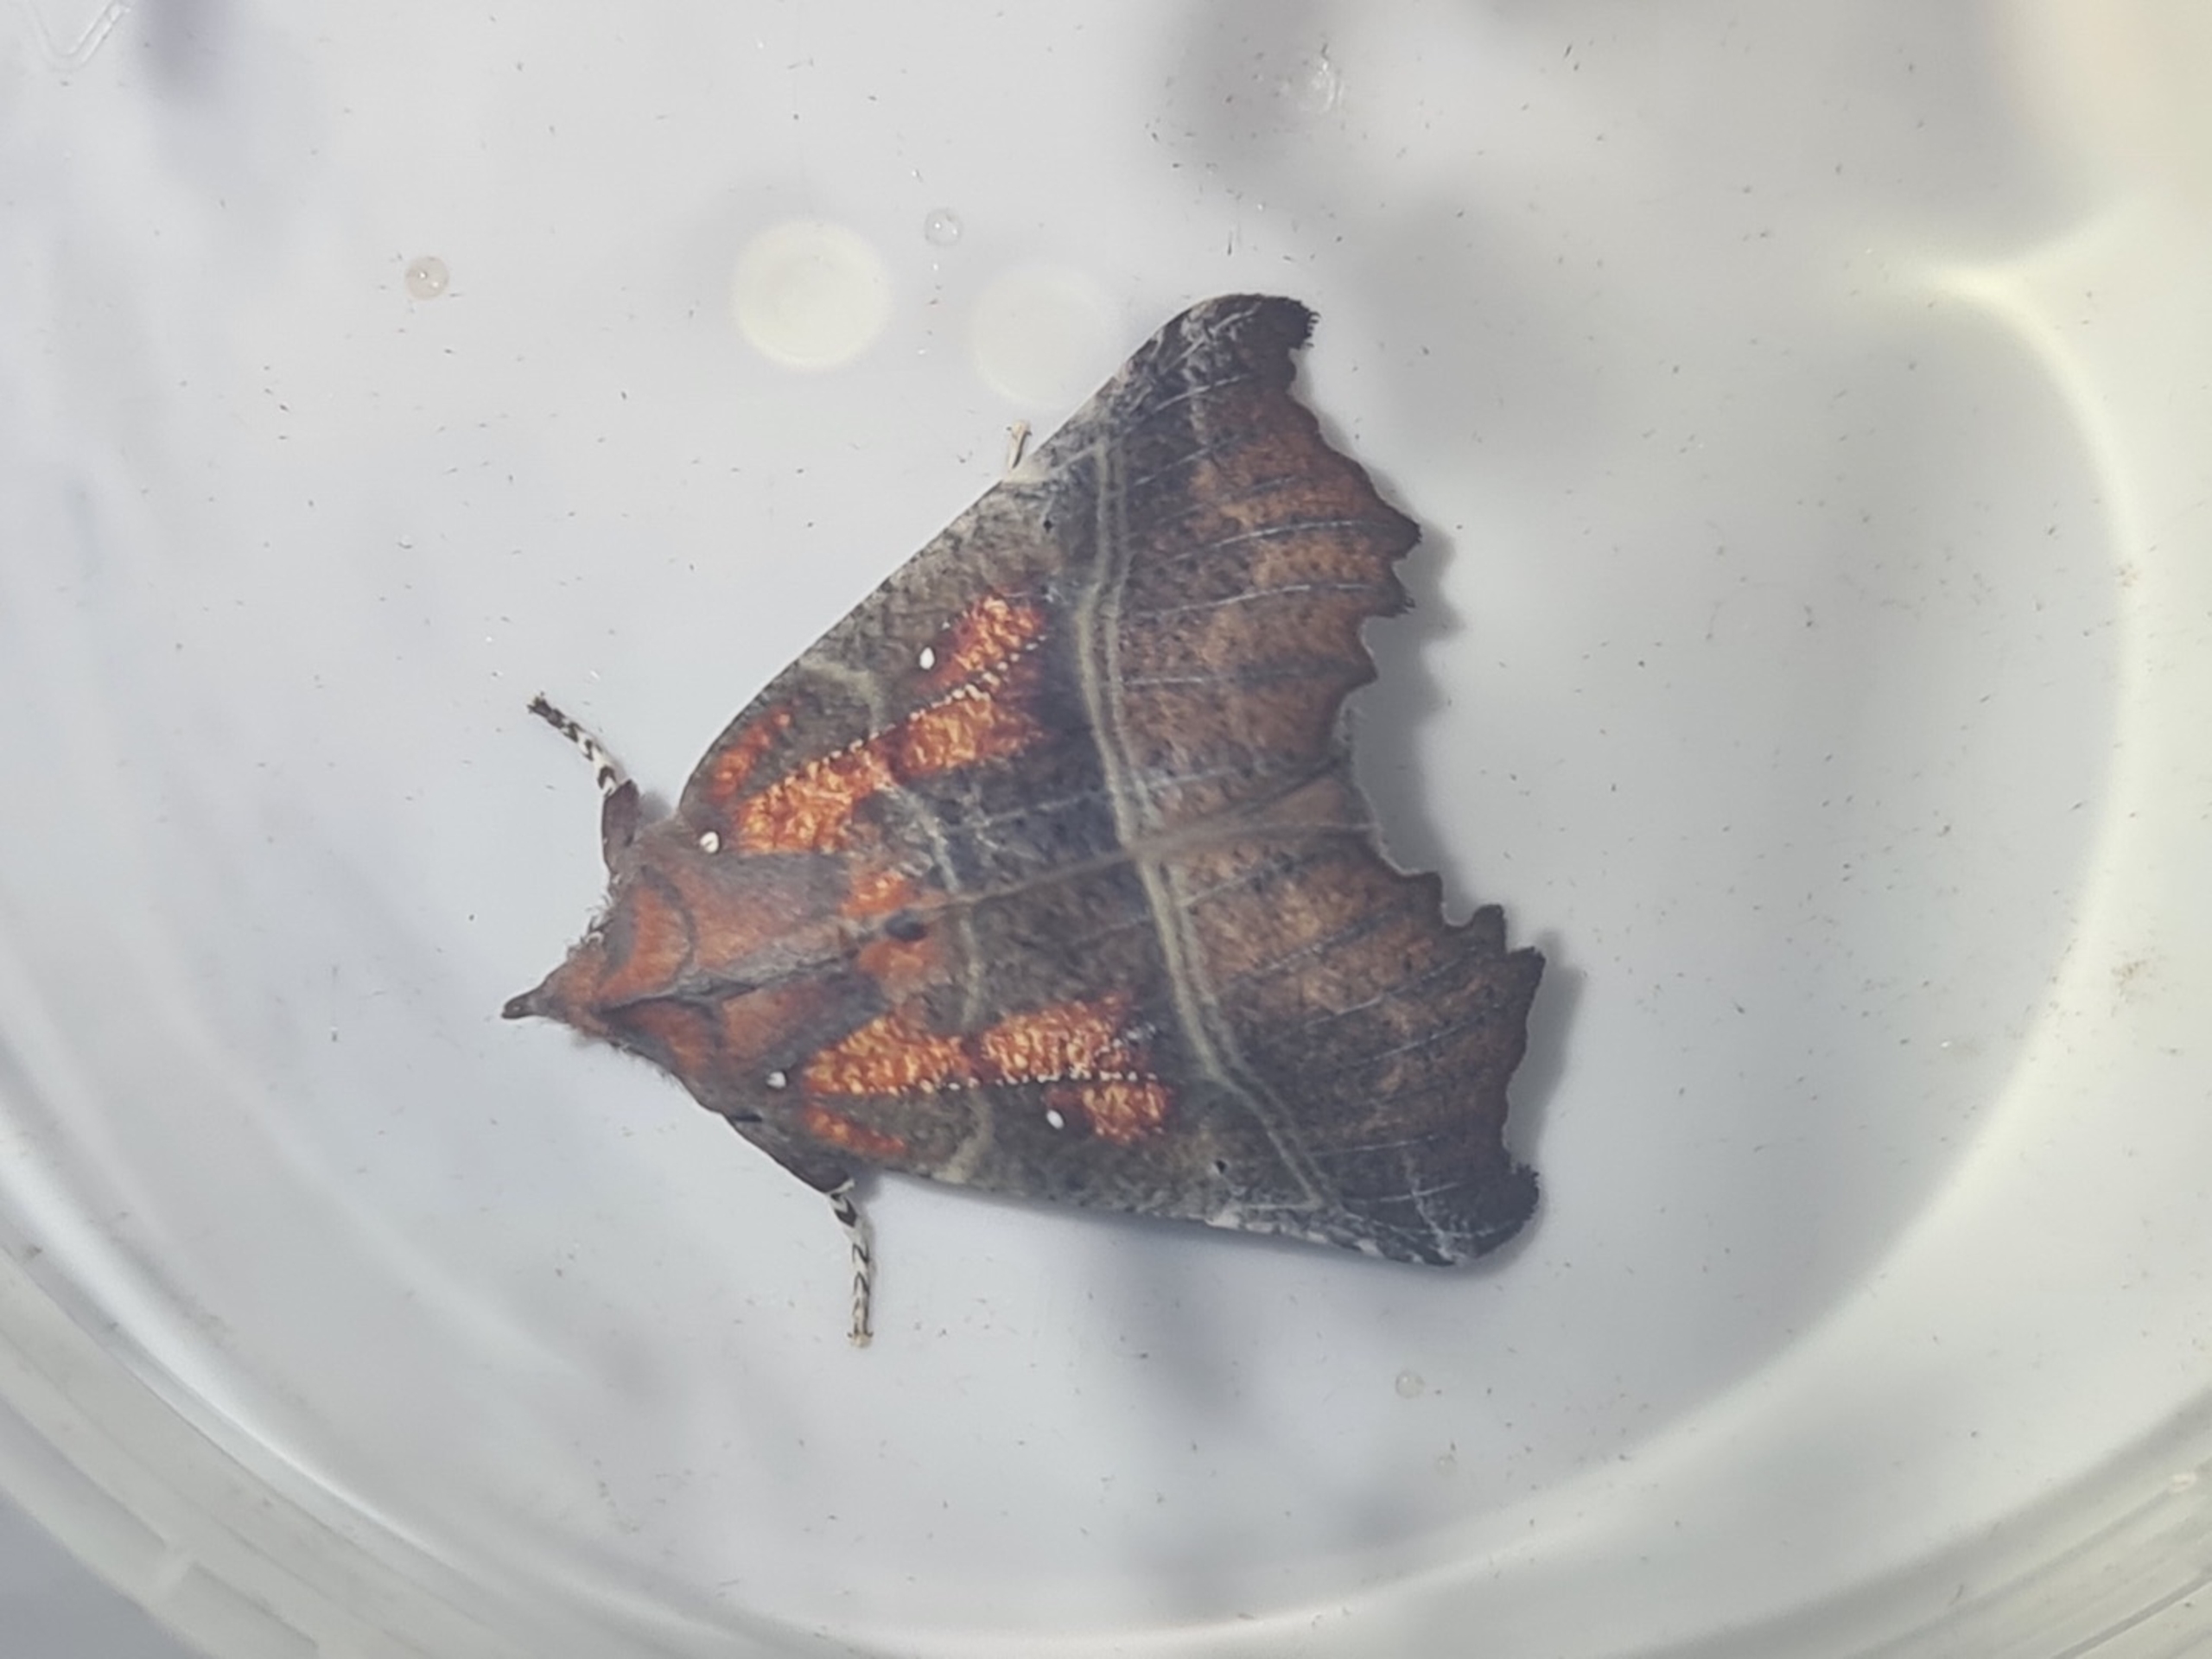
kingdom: Animalia
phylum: Arthropoda
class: Insecta
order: Lepidoptera
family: Erebidae
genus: Scoliopteryx
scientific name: Scoliopteryx libatrix
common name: Husmoderugle
